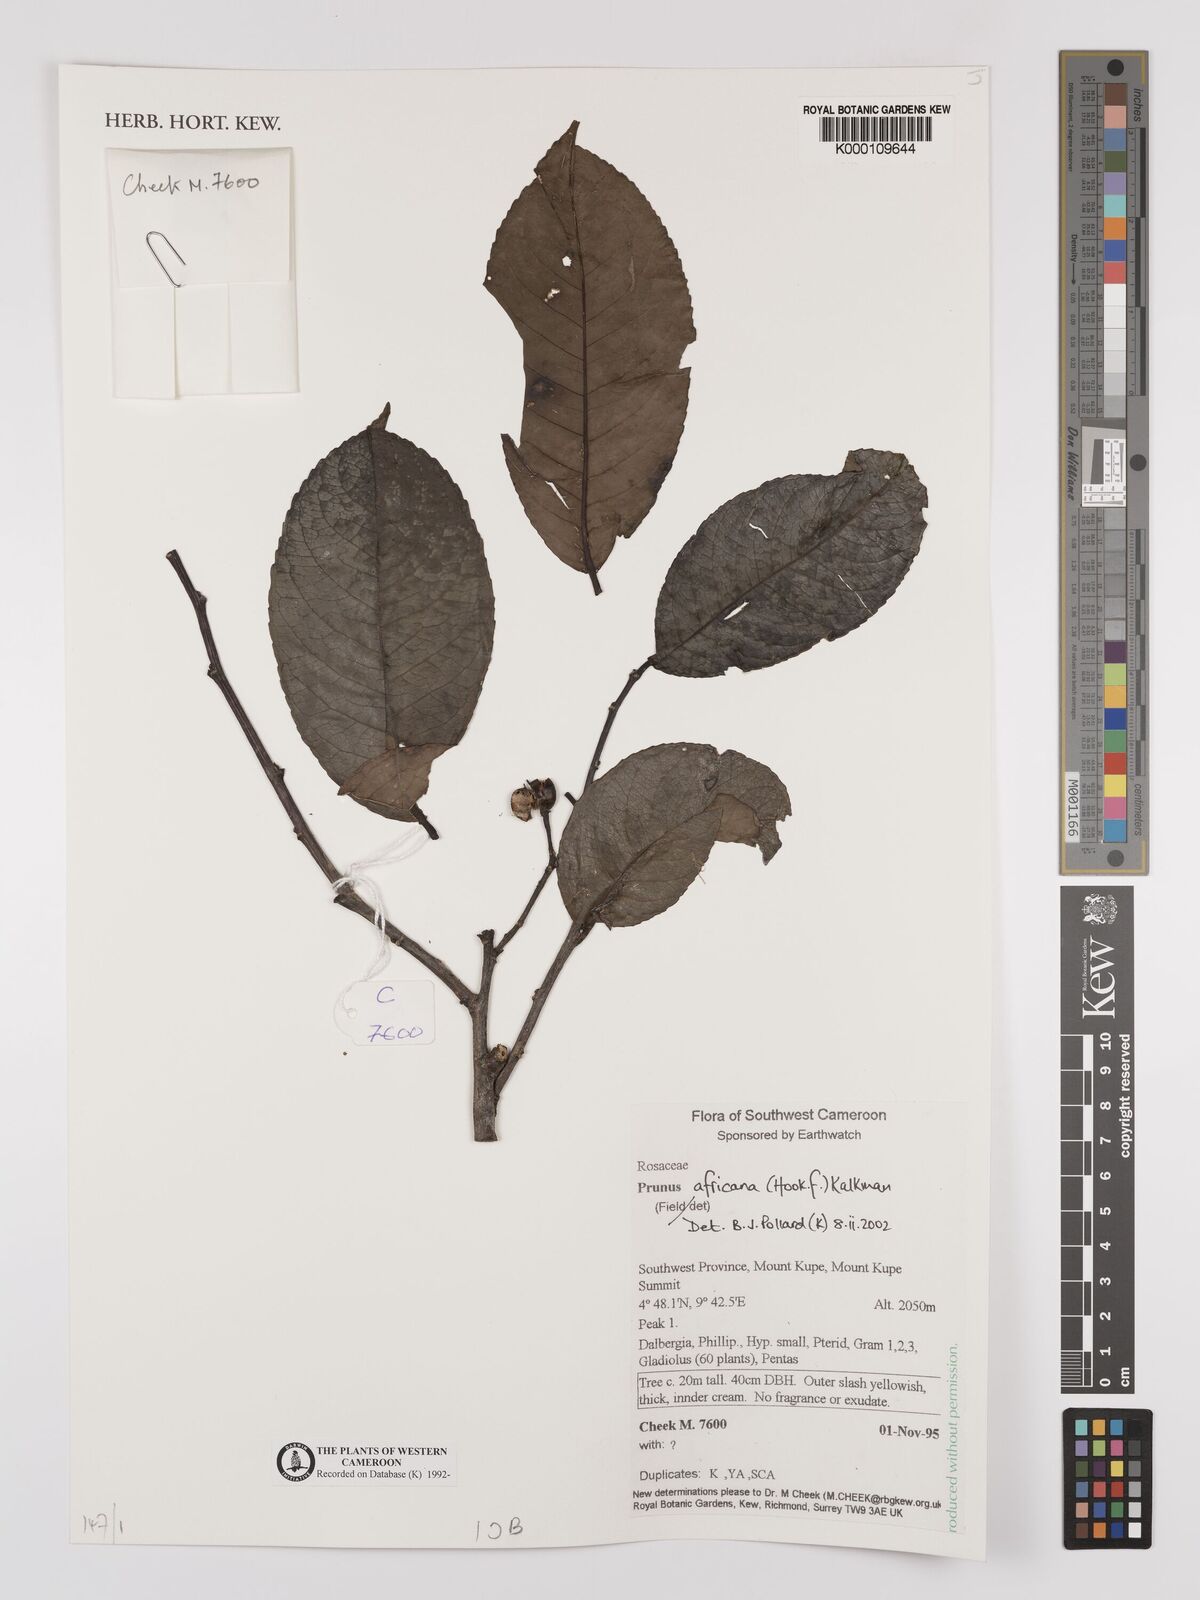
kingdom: Plantae
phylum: Tracheophyta
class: Magnoliopsida
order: Rosales
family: Rosaceae
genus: Prunus
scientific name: Prunus africana
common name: African cherry
